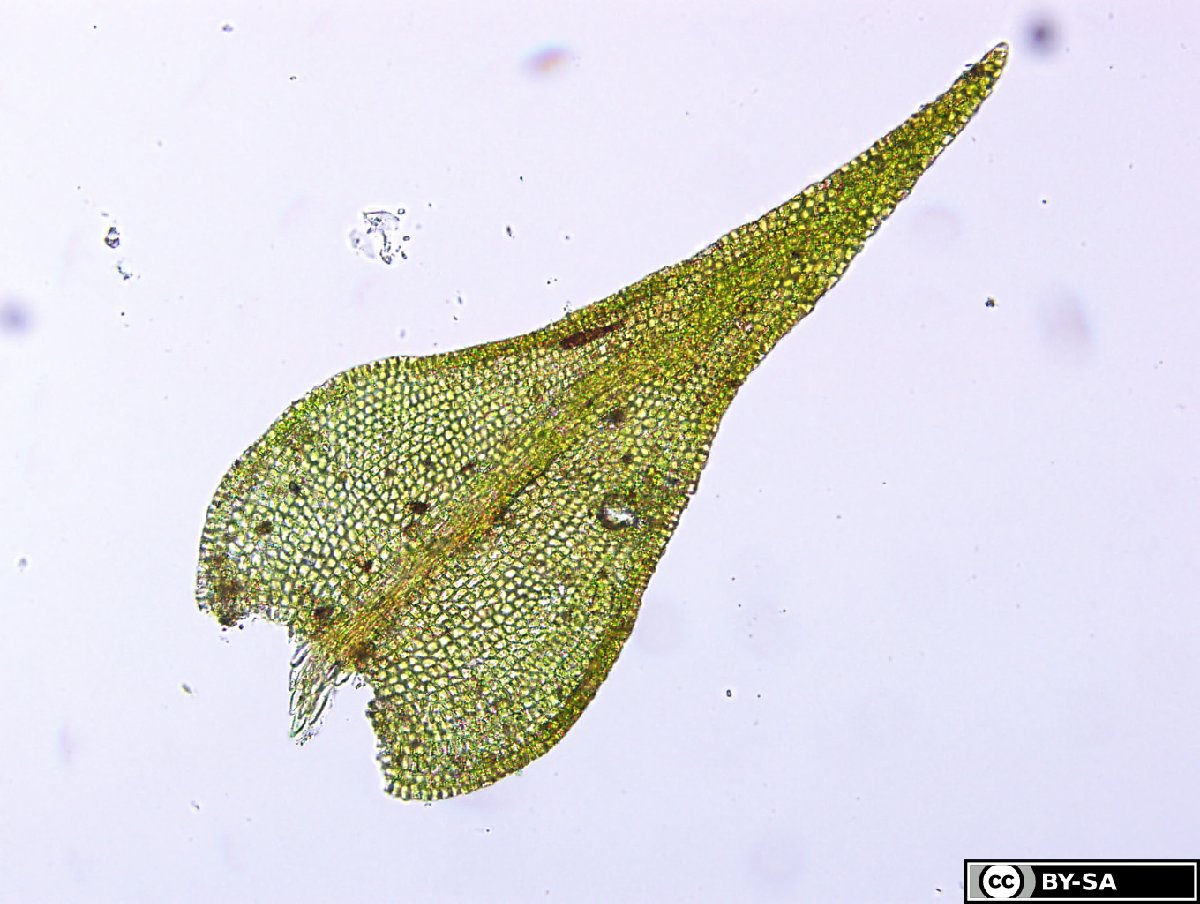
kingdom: Plantae
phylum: Bryophyta
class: Bryopsida
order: Hypnales
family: Pseudoleskeellaceae
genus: Pseudoleskeella
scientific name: Pseudoleskeella nervosa
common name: Nerved leske's moss
